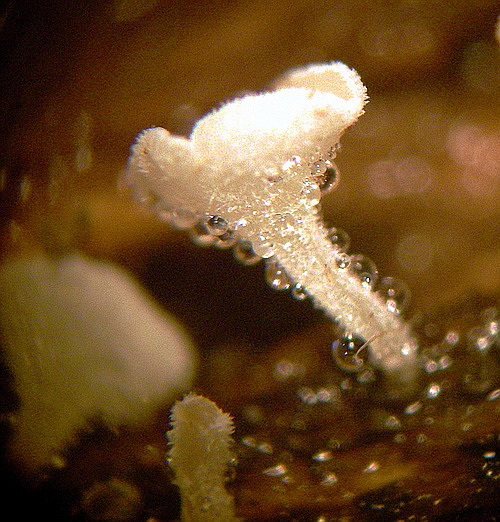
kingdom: Fungi
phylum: Ascomycota
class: Leotiomycetes
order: Helotiales
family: Lachnaceae
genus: Lachnum
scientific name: Lachnum impudicum
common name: vinter-frynseskive
